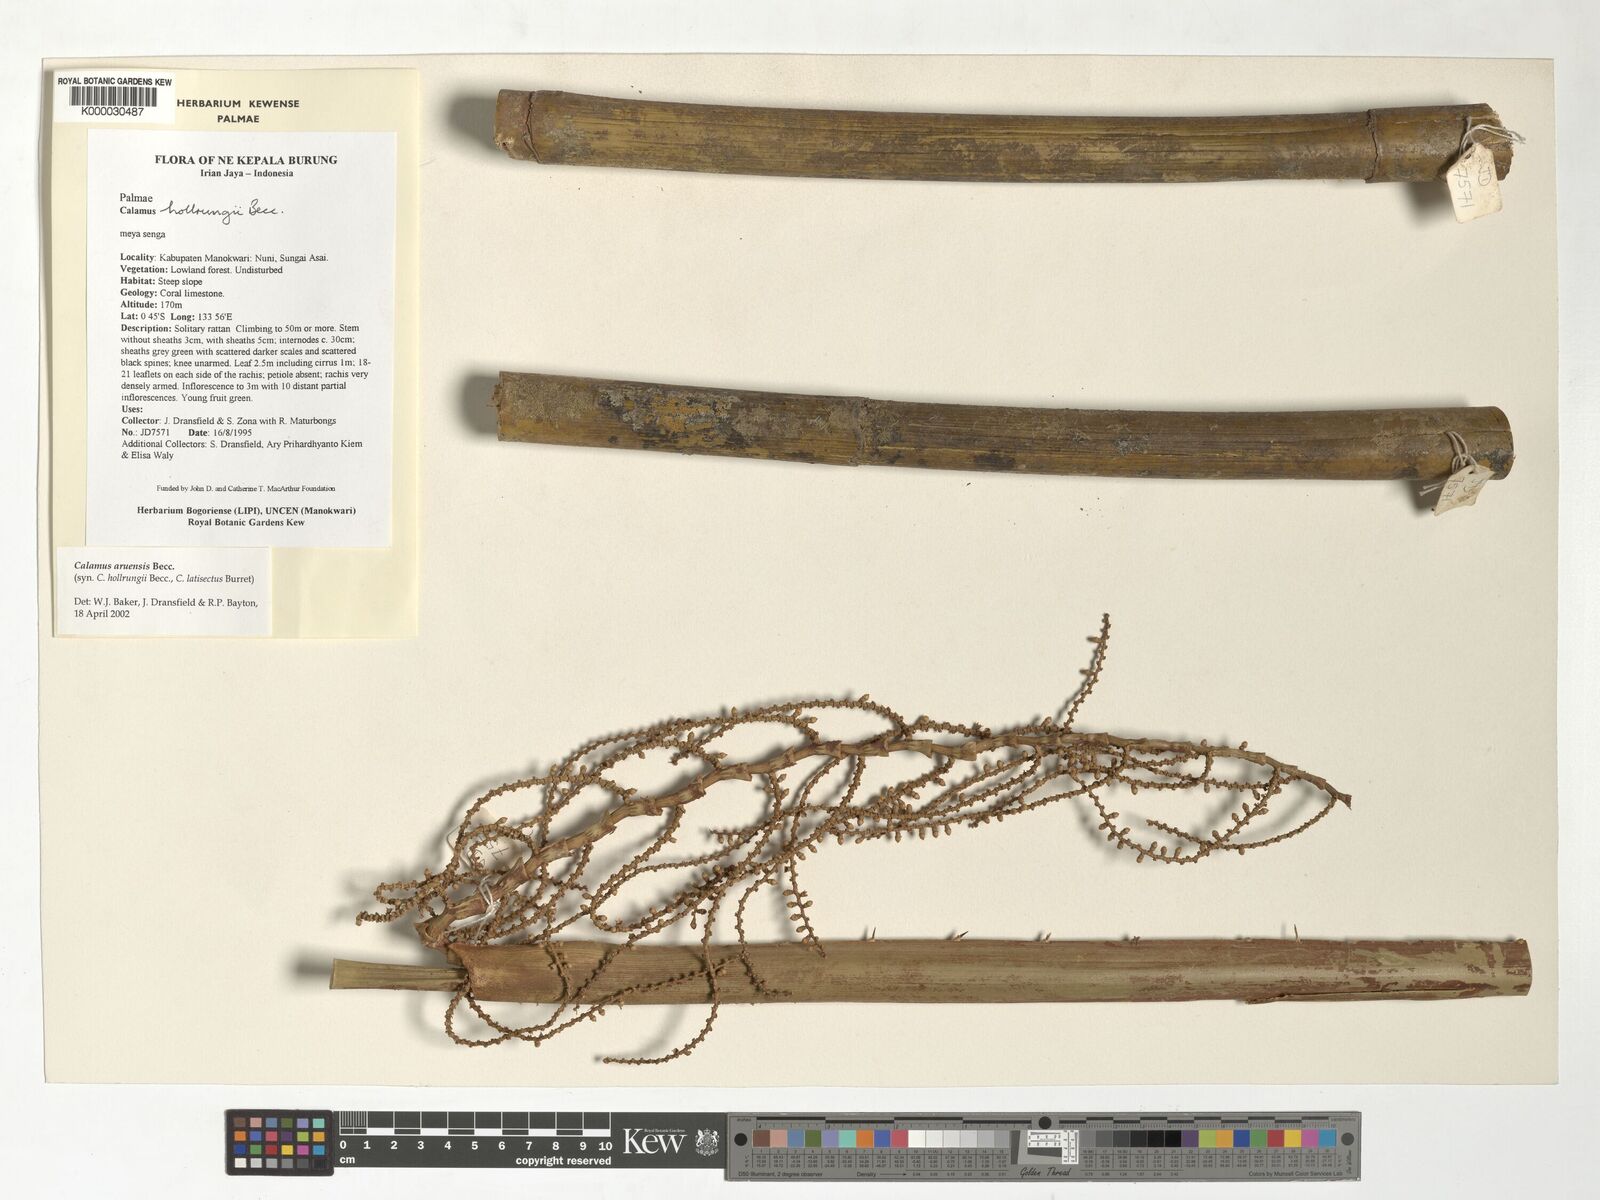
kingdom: Plantae
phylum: Tracheophyta
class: Liliopsida
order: Arecales
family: Arecaceae
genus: Calamus
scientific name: Calamus aruensis
